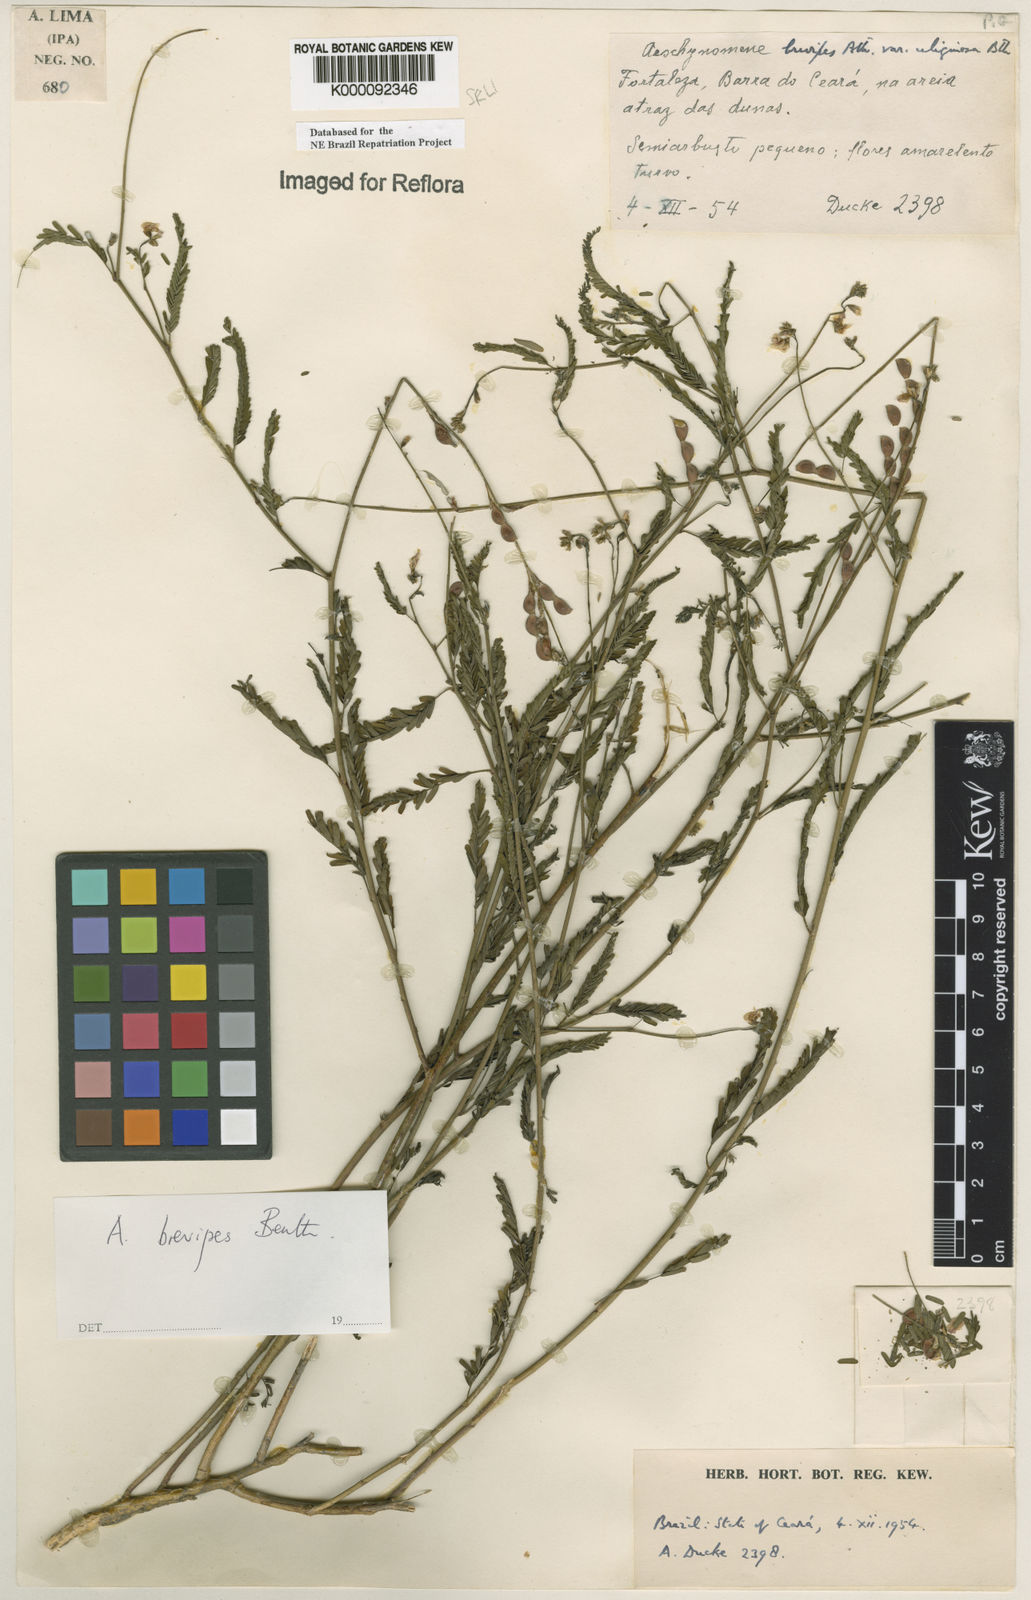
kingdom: Plantae
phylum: Tracheophyta
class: Magnoliopsida
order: Fabales
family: Fabaceae
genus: Ctenodon
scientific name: Ctenodon brevipes
